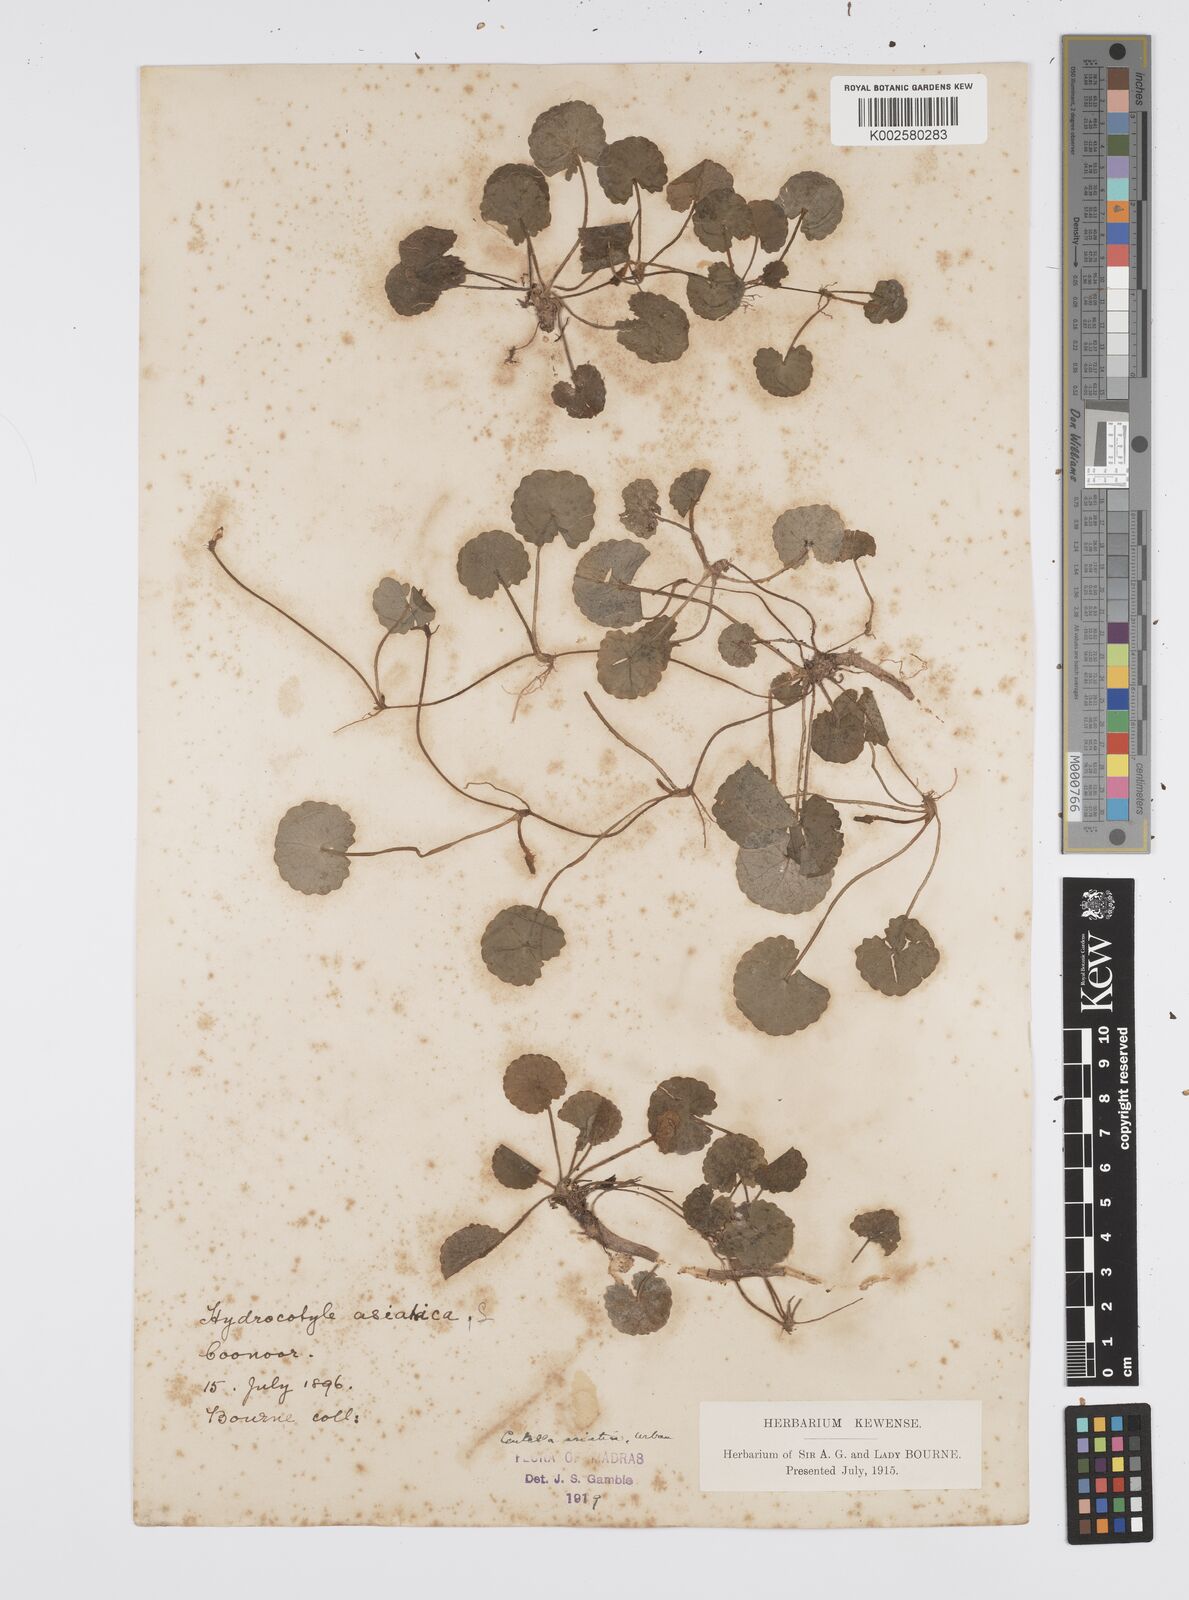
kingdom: Plantae
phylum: Tracheophyta
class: Magnoliopsida
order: Apiales
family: Apiaceae
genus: Centella
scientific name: Centella asiatica
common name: Spadeleaf
